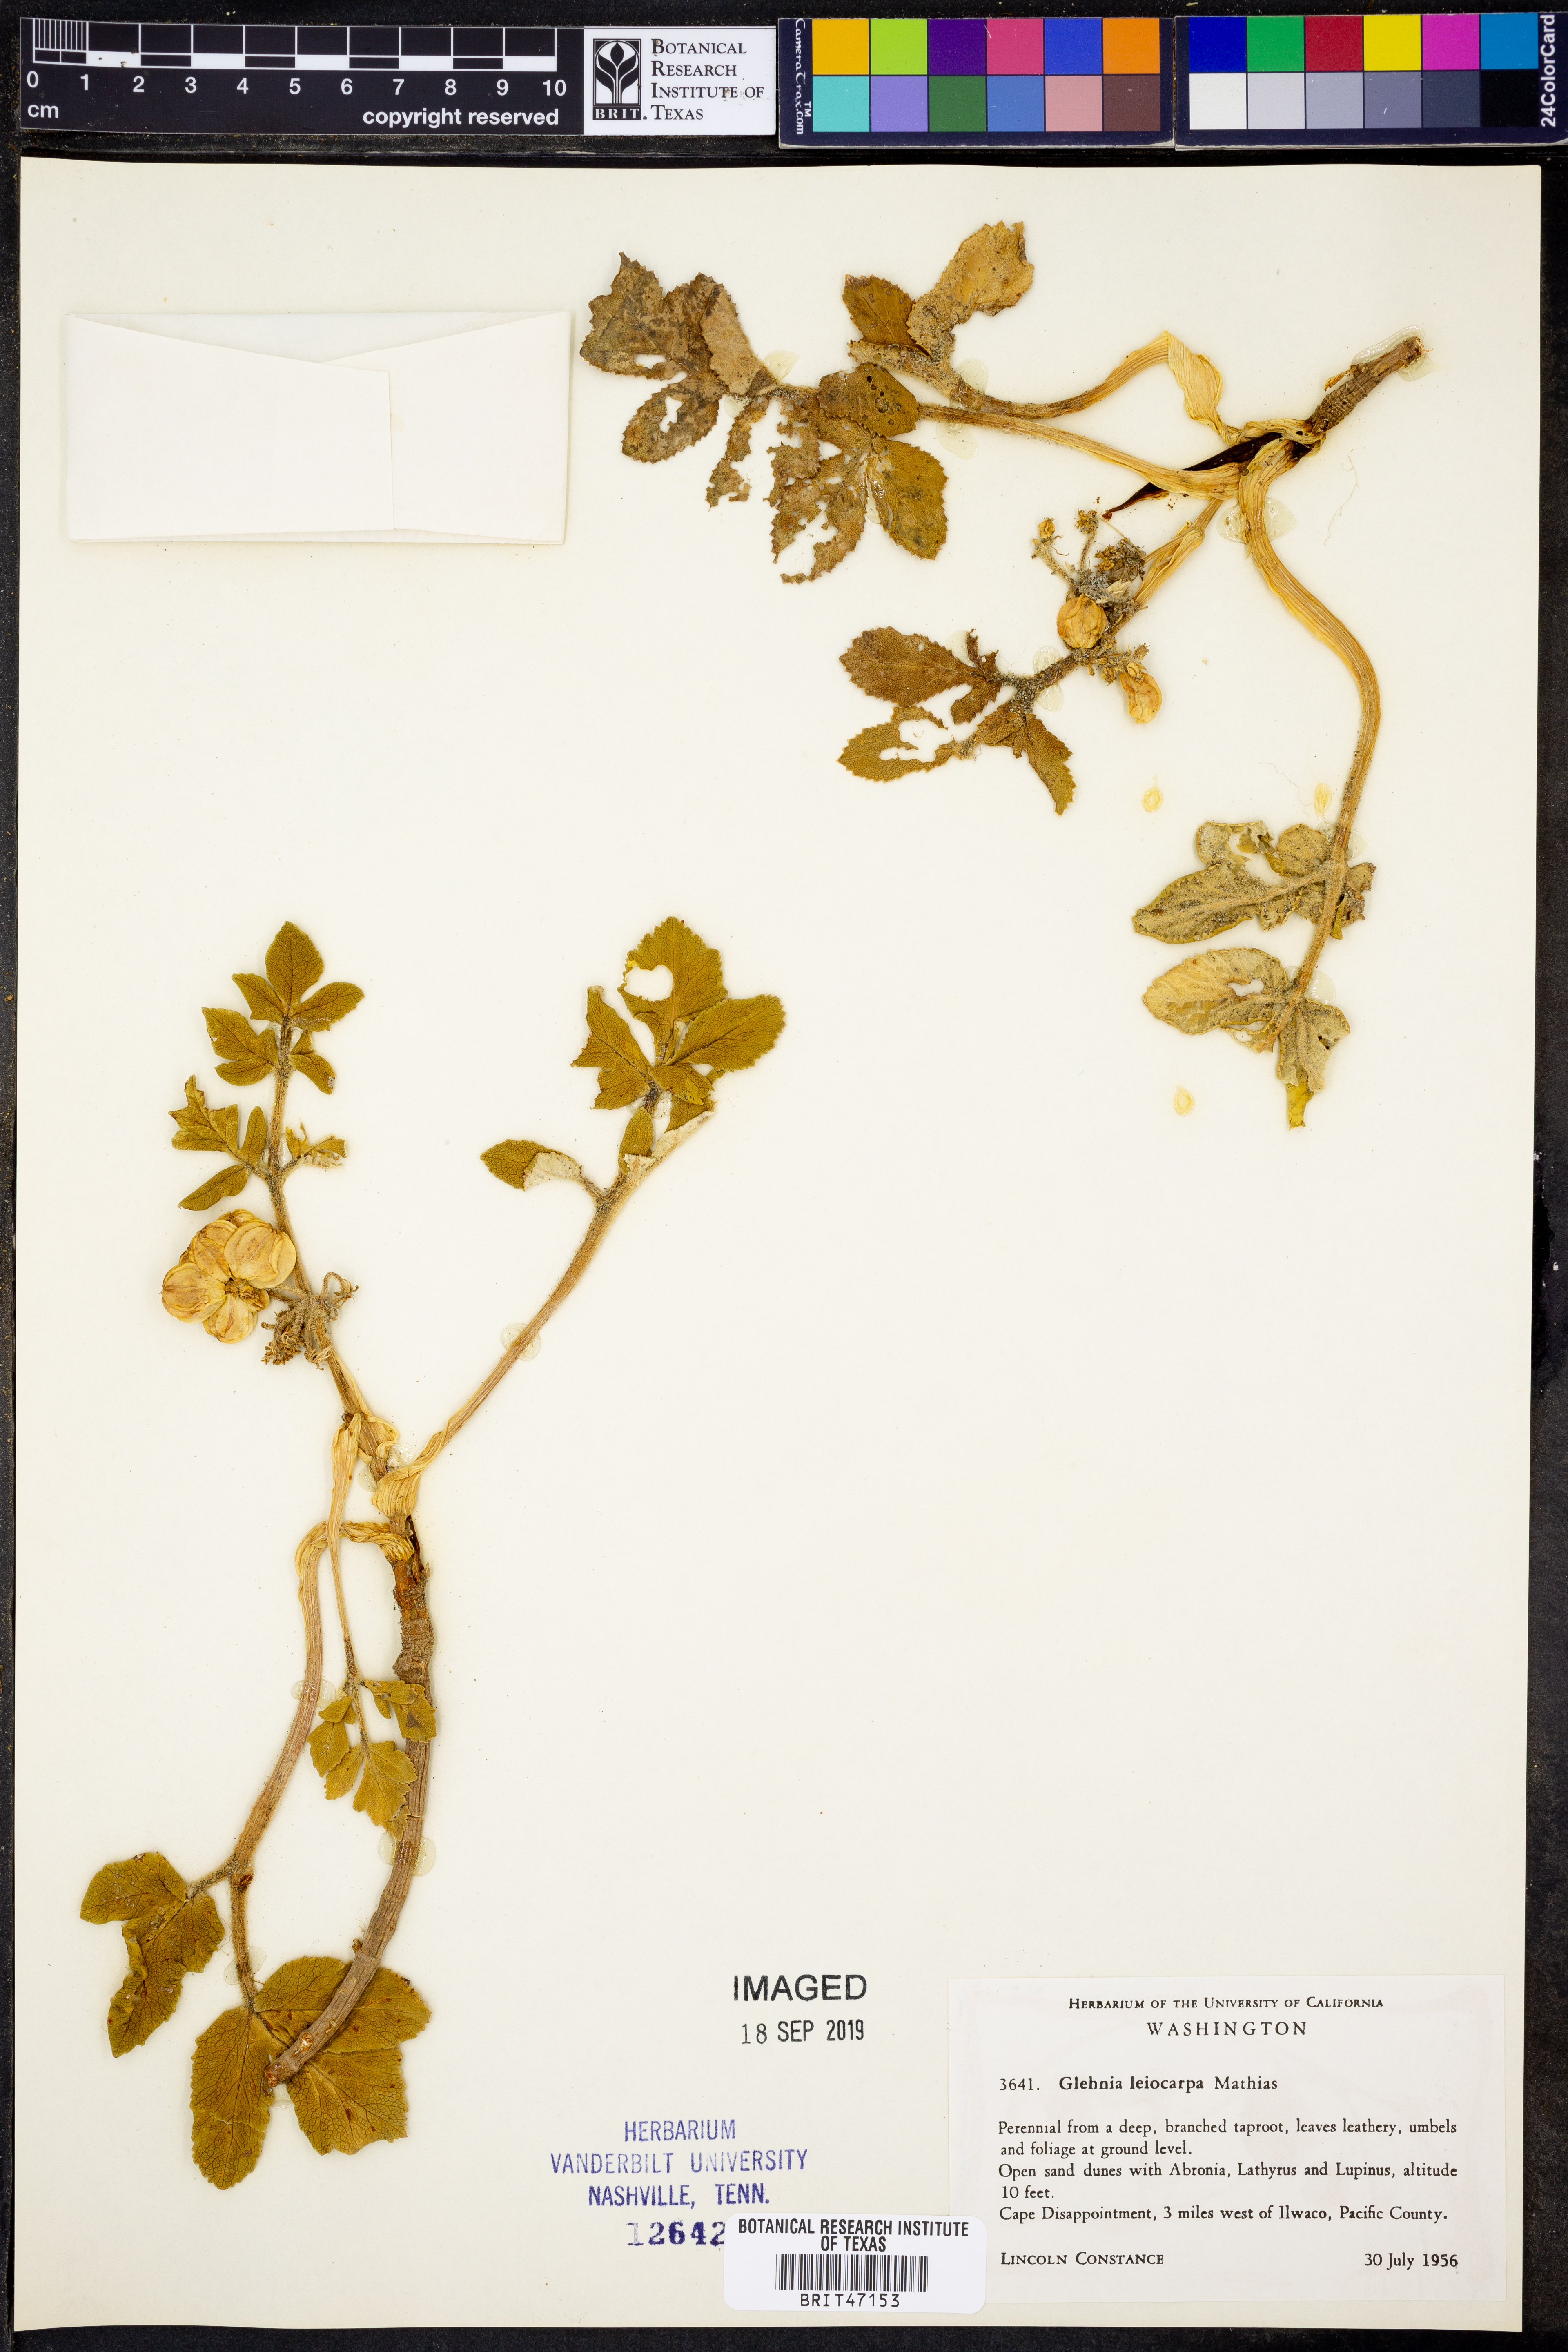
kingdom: Plantae
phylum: Tracheophyta
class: Magnoliopsida
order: Apiales
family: Apiaceae
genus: Angelica
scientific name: Angelica leiocarpa
